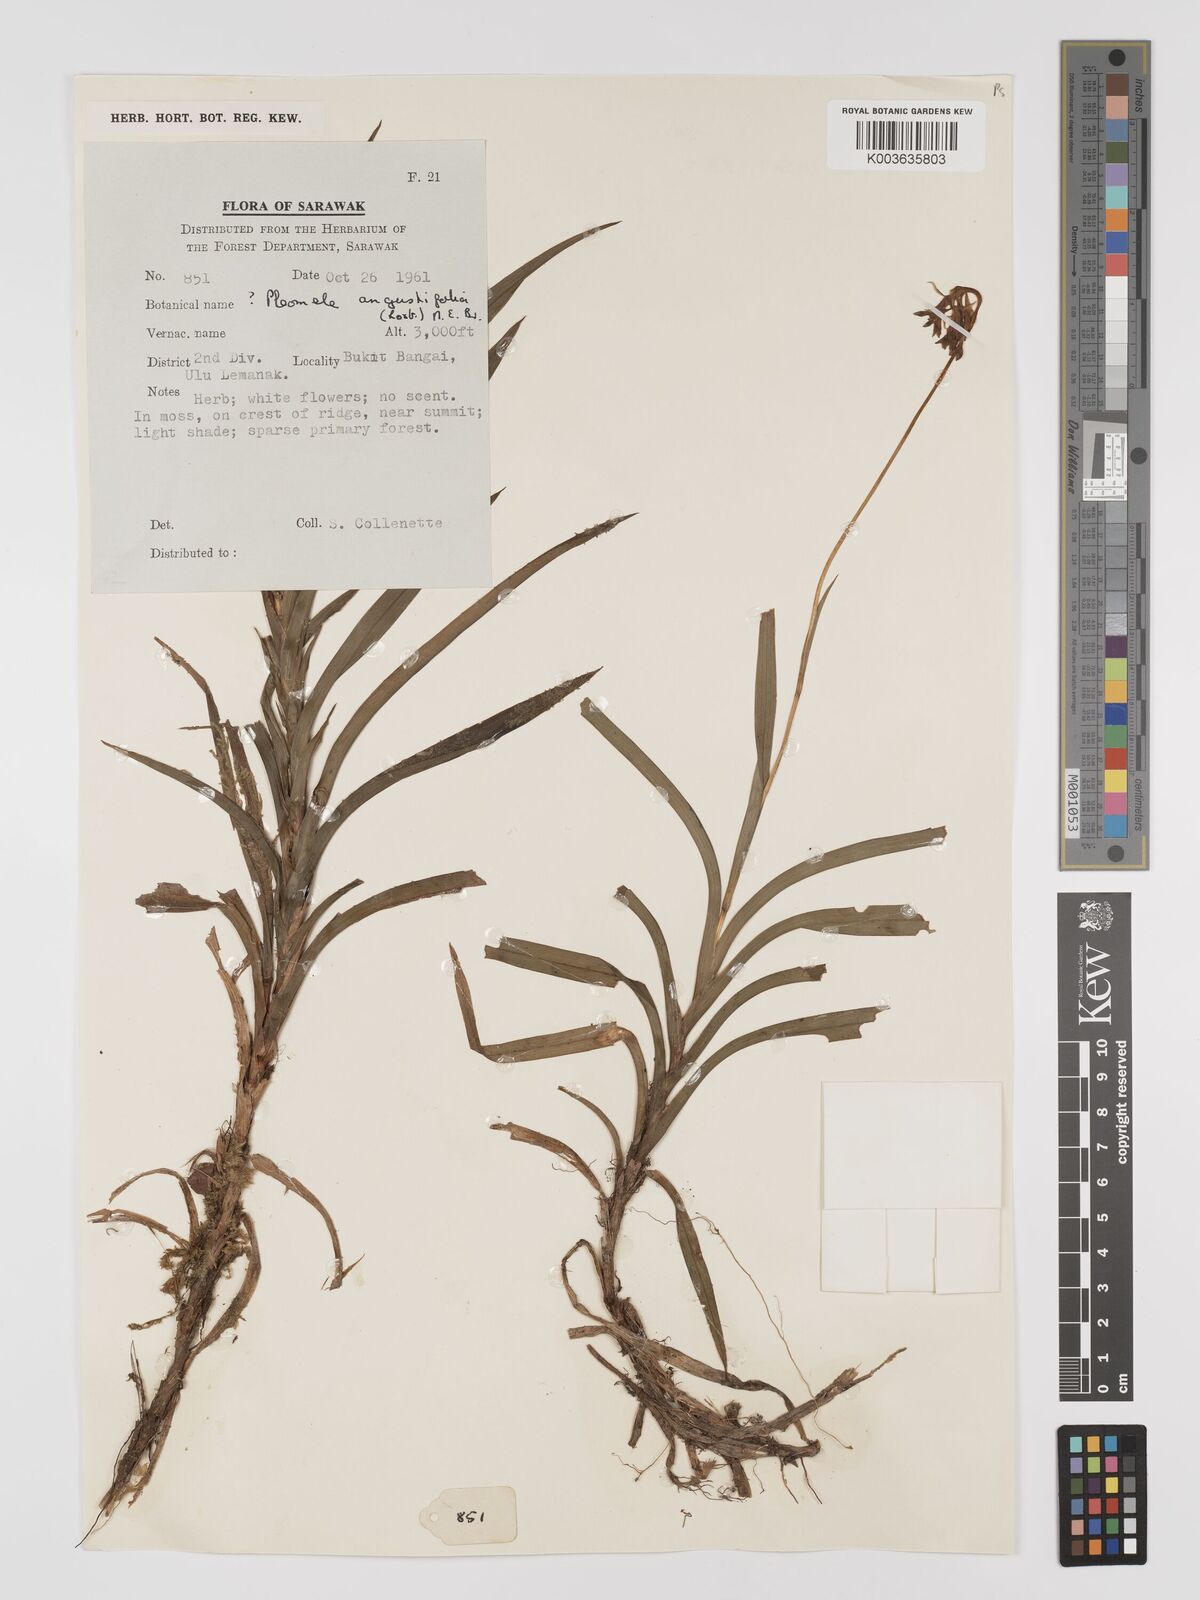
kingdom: Plantae
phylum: Tracheophyta
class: Liliopsida
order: Dioscoreales
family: Burmanniaceae
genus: Burmannia
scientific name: Burmannia longifolia
